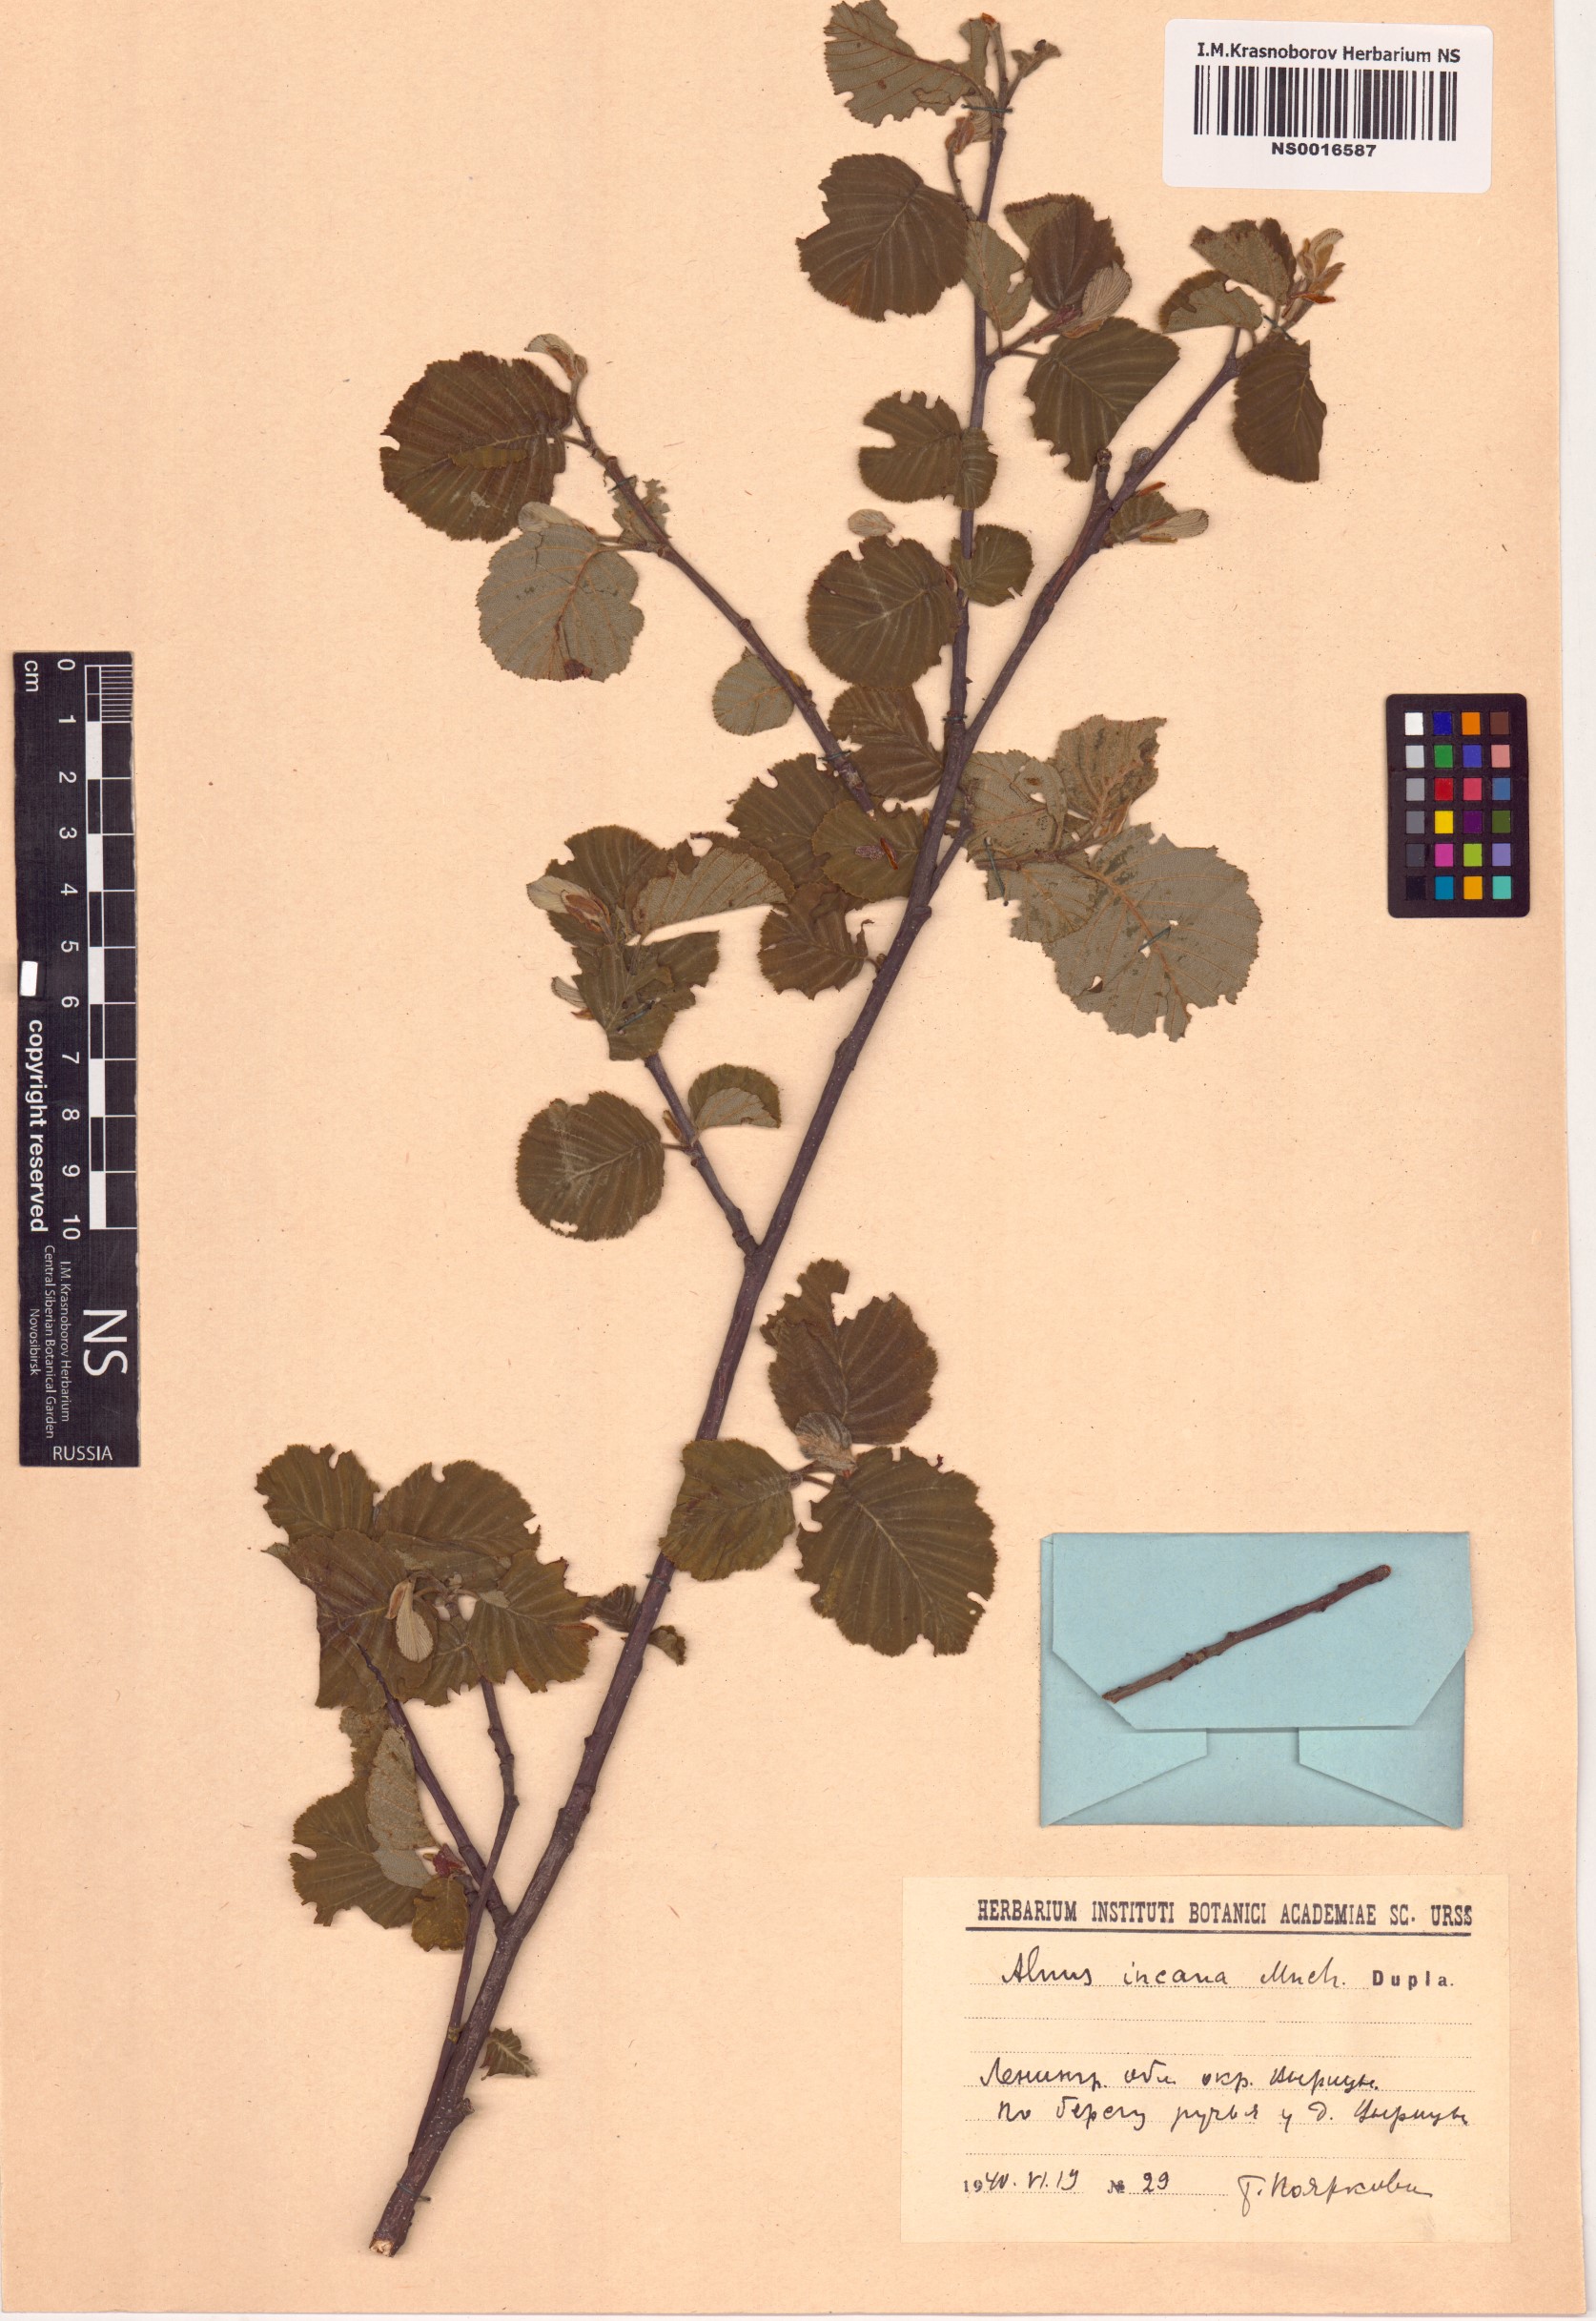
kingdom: Plantae
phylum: Tracheophyta
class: Magnoliopsida
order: Fagales
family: Betulaceae
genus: Alnus
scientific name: Alnus incana
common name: Grey alder
